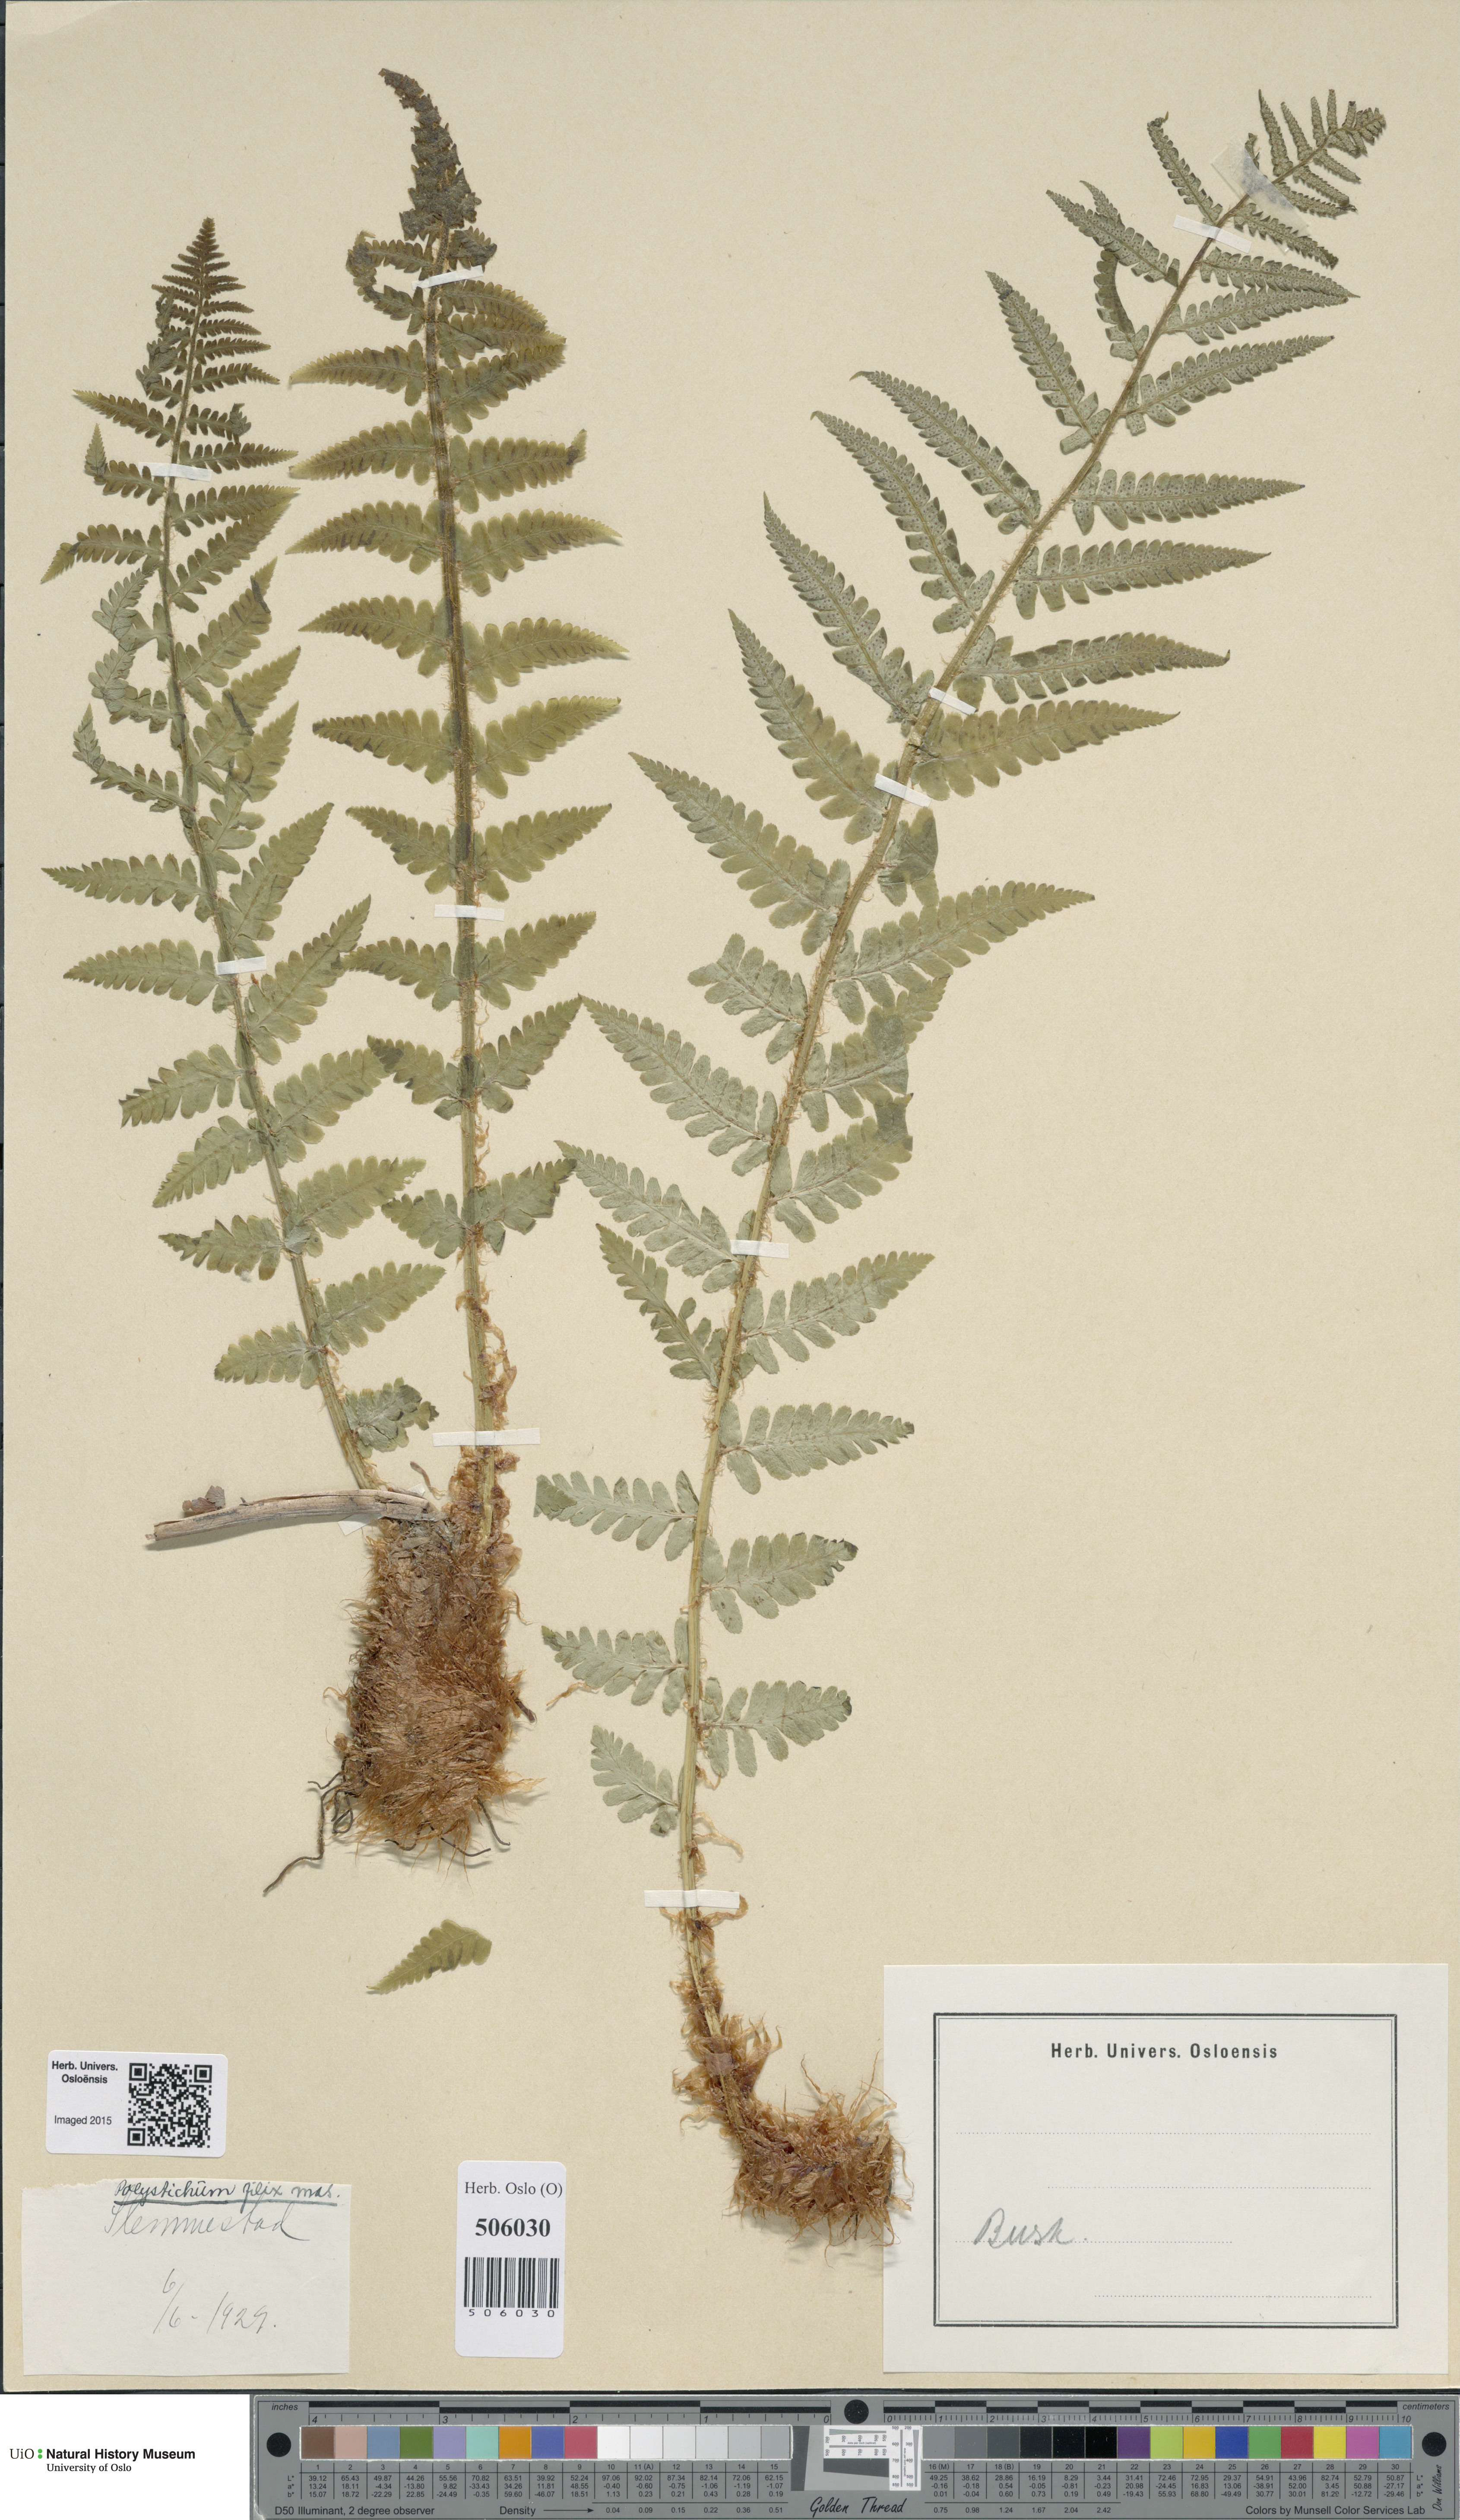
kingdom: Plantae
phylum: Tracheophyta
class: Polypodiopsida
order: Polypodiales
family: Dryopteridaceae
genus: Dryopteris
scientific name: Dryopteris filix-mas
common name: Male fern
